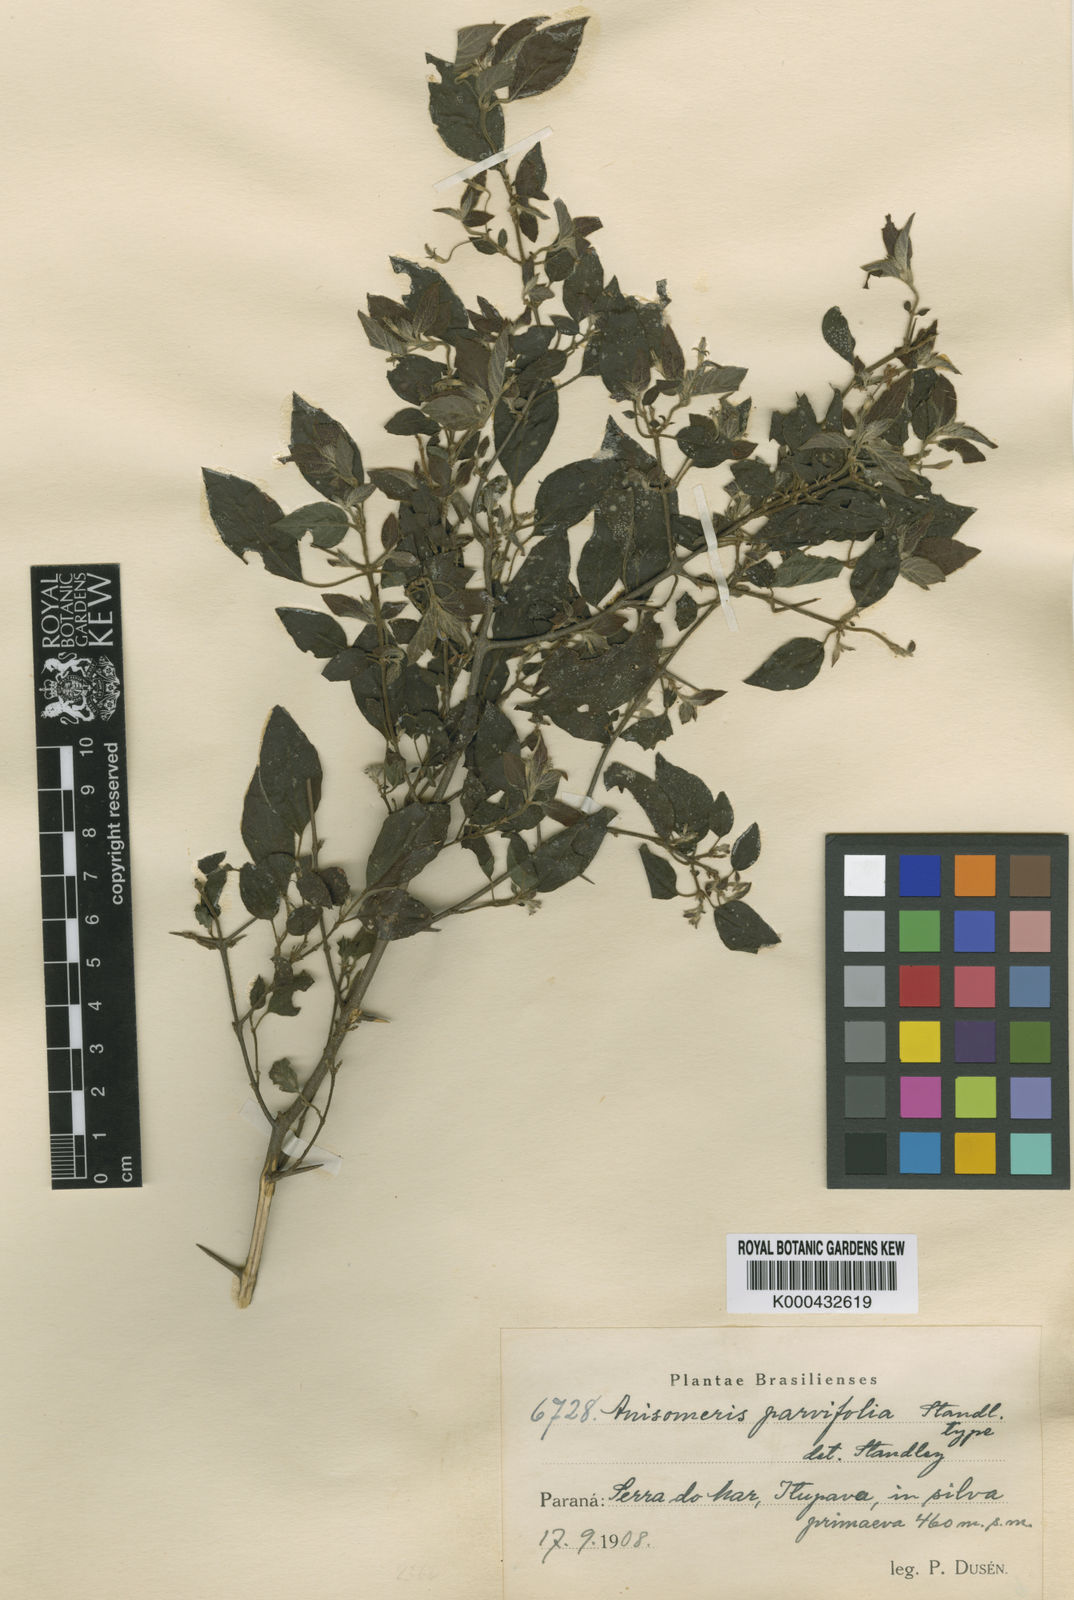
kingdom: Plantae
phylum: Tracheophyta
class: Magnoliopsida
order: Gentianales
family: Rubiaceae
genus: Chomelia
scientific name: Chomelia
